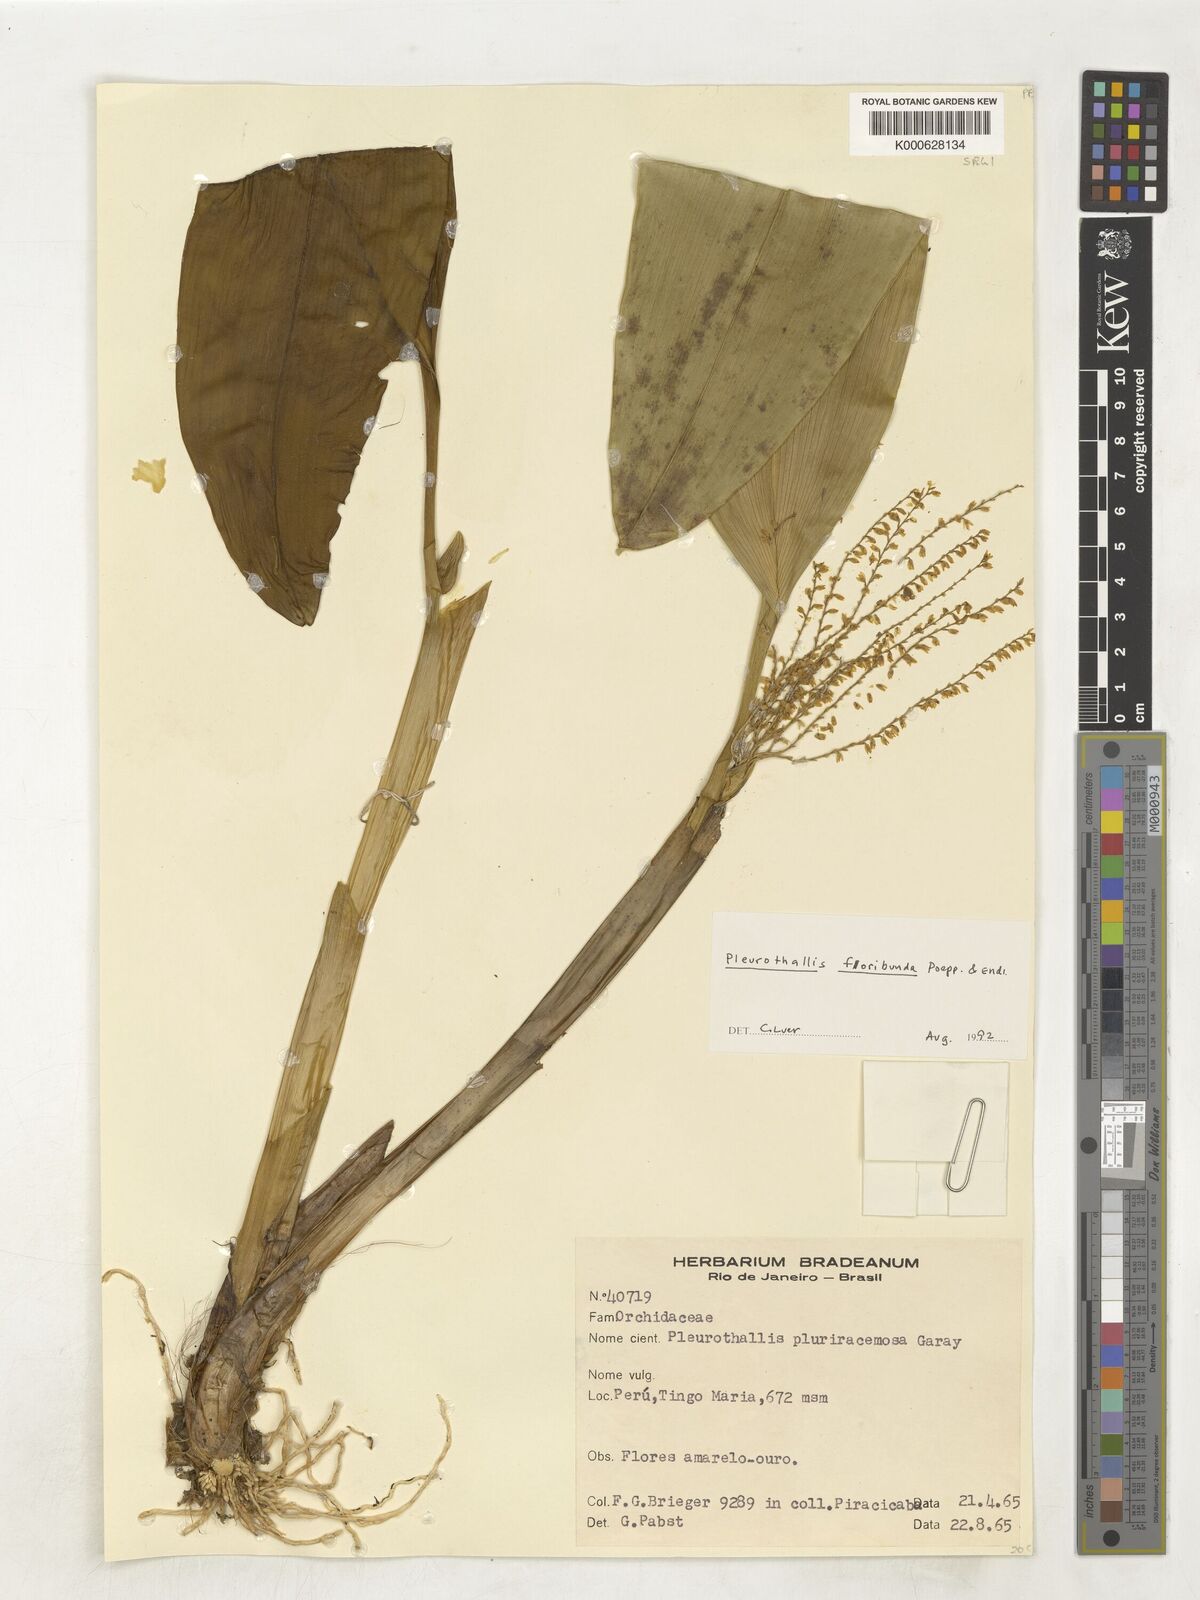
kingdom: Plantae
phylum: Tracheophyta
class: Liliopsida
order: Asparagales
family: Orchidaceae
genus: Pleurothallis
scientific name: Pleurothallis
